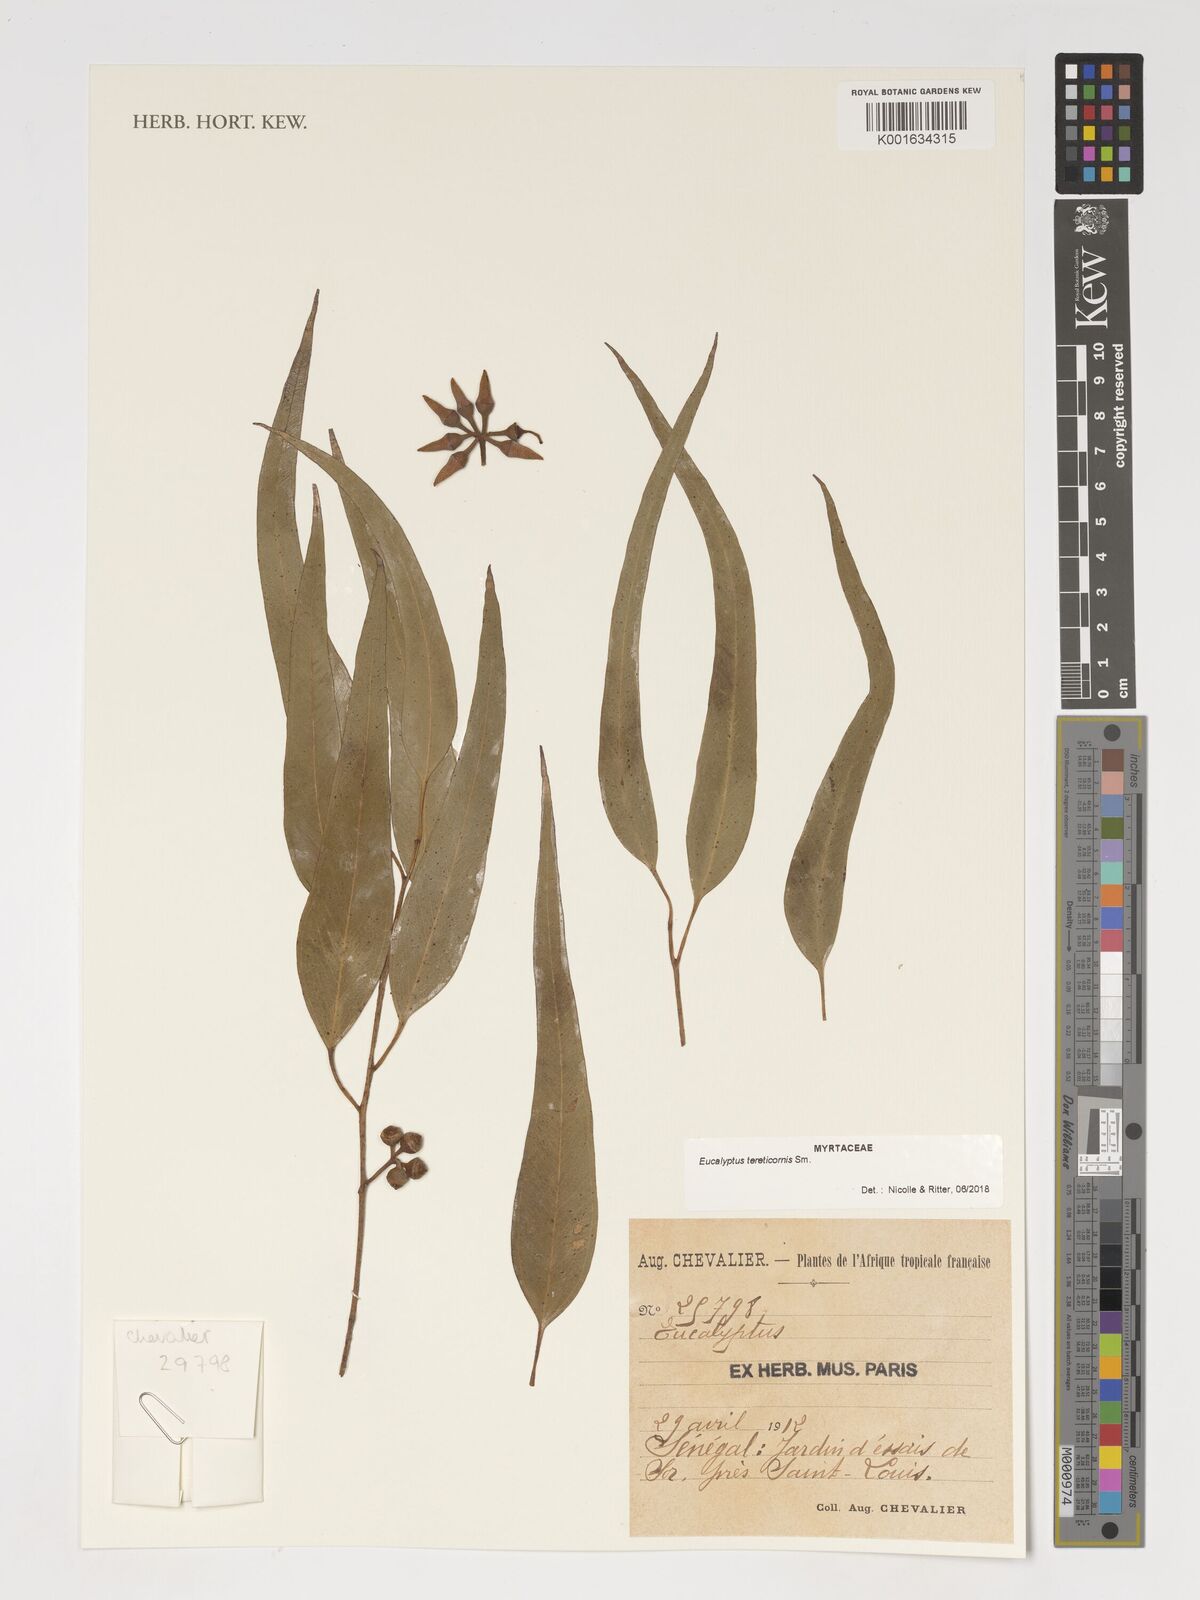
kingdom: Plantae
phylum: Tracheophyta
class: Magnoliopsida
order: Myrtales
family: Myrtaceae
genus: Eucalyptus
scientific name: Eucalyptus tereticornis
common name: Forest redgum
